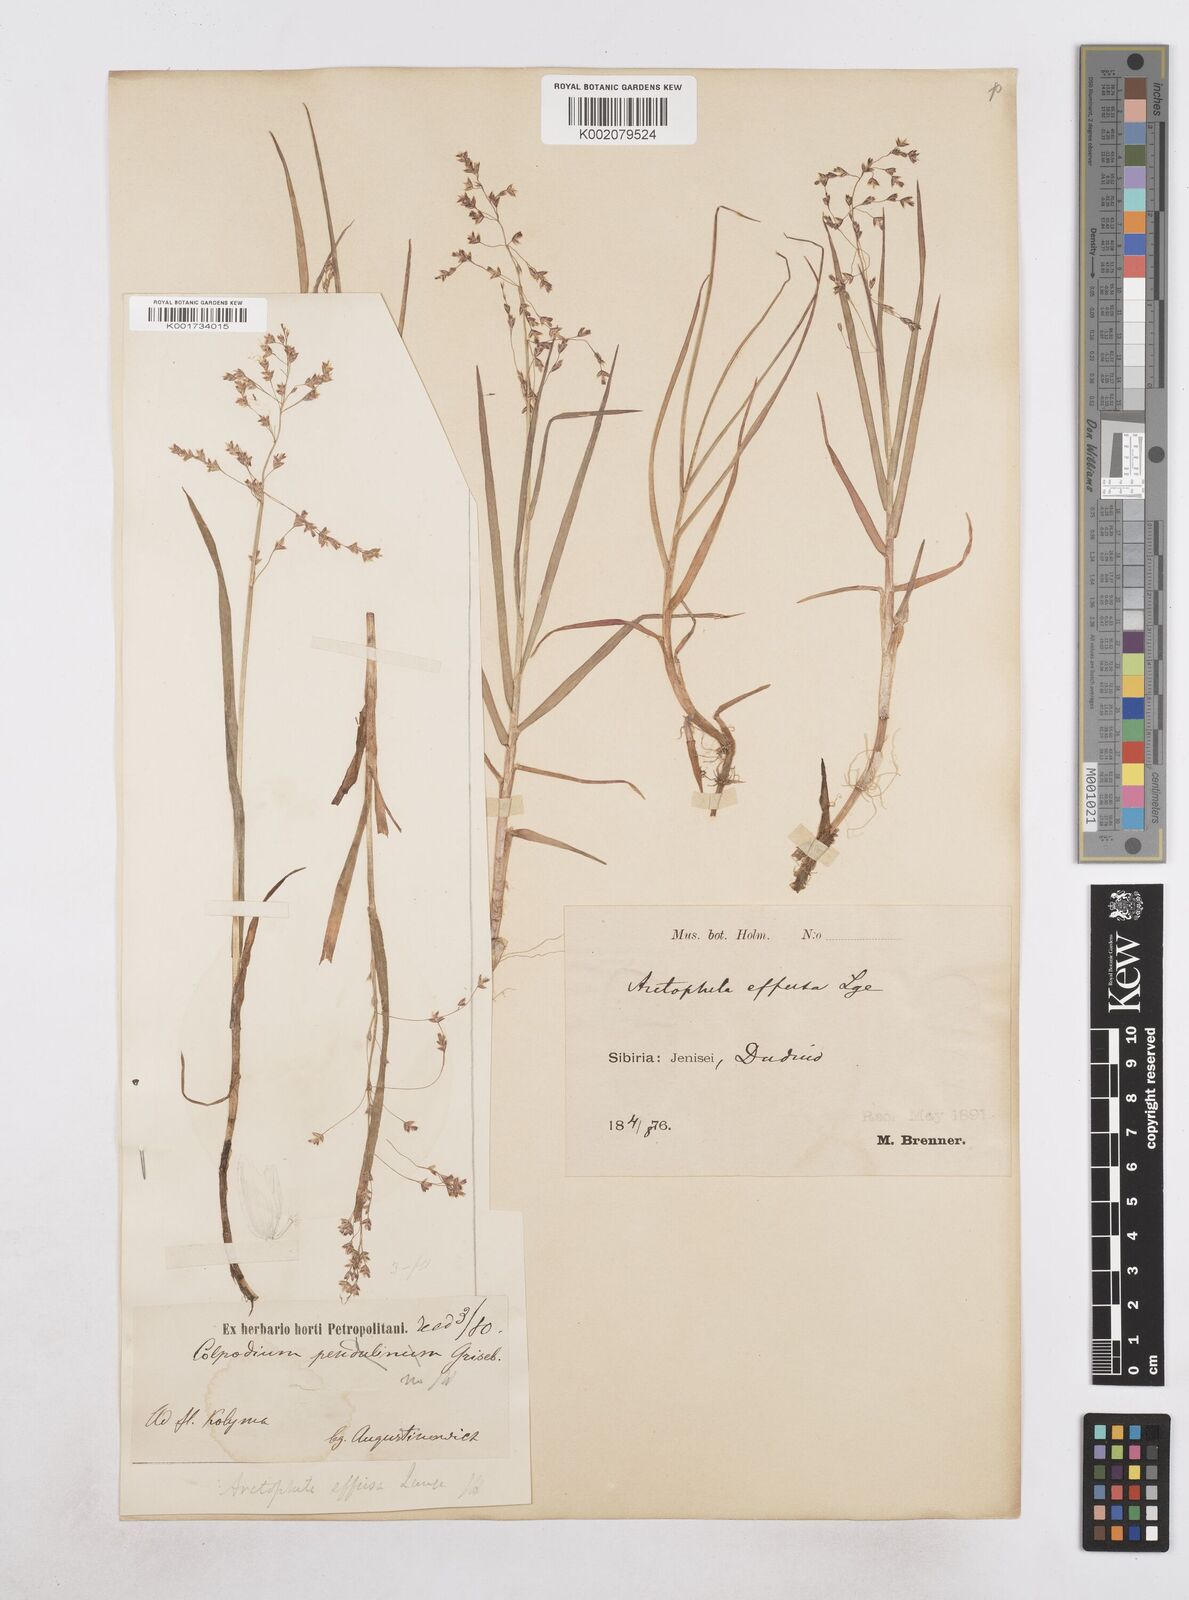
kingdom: Plantae
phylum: Tracheophyta
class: Liliopsida
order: Poales
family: Poaceae
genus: Dupontia
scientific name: Dupontia fulva
